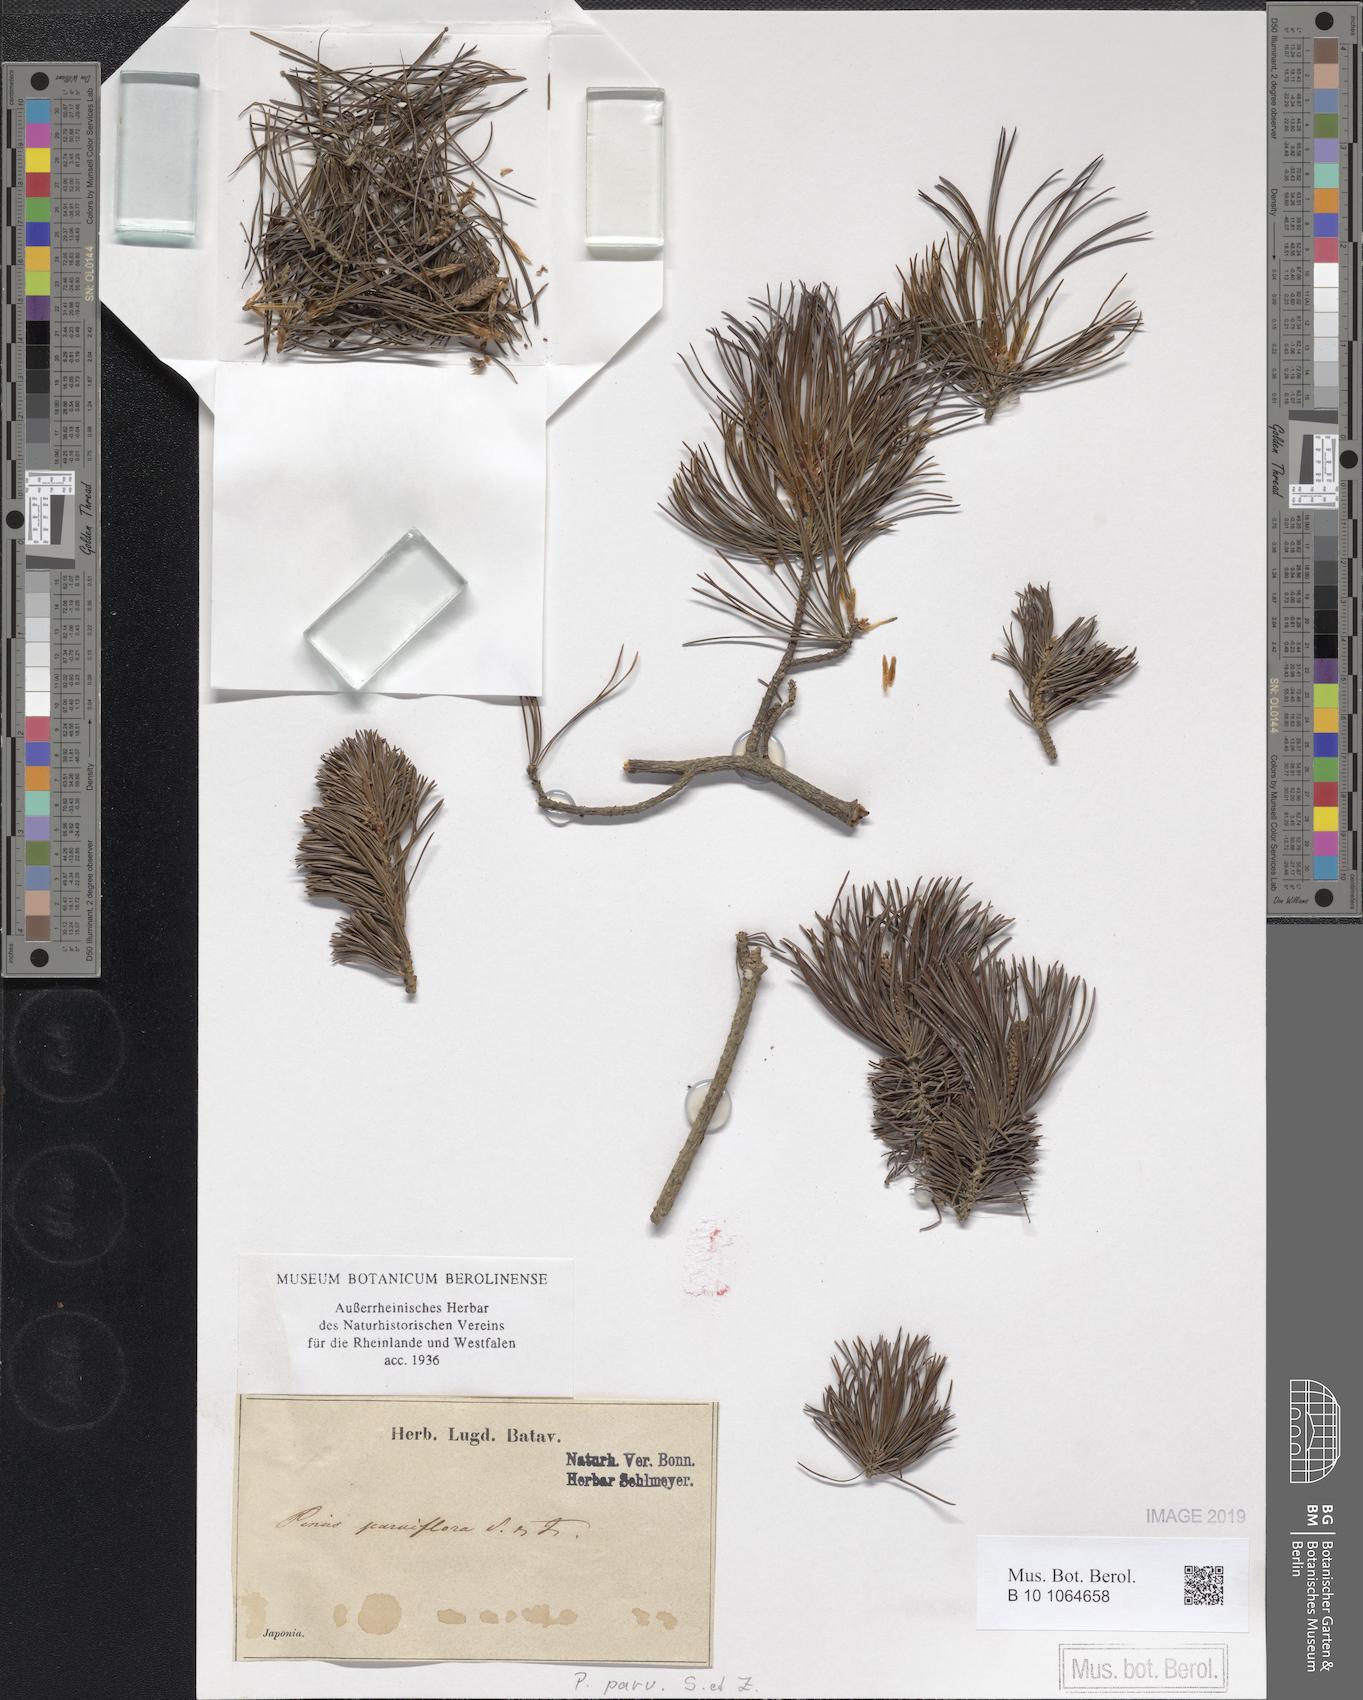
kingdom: Plantae
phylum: Tracheophyta
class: Pinopsida
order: Pinales
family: Pinaceae
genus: Pinus
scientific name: Pinus parviflora
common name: Japanese white pine
